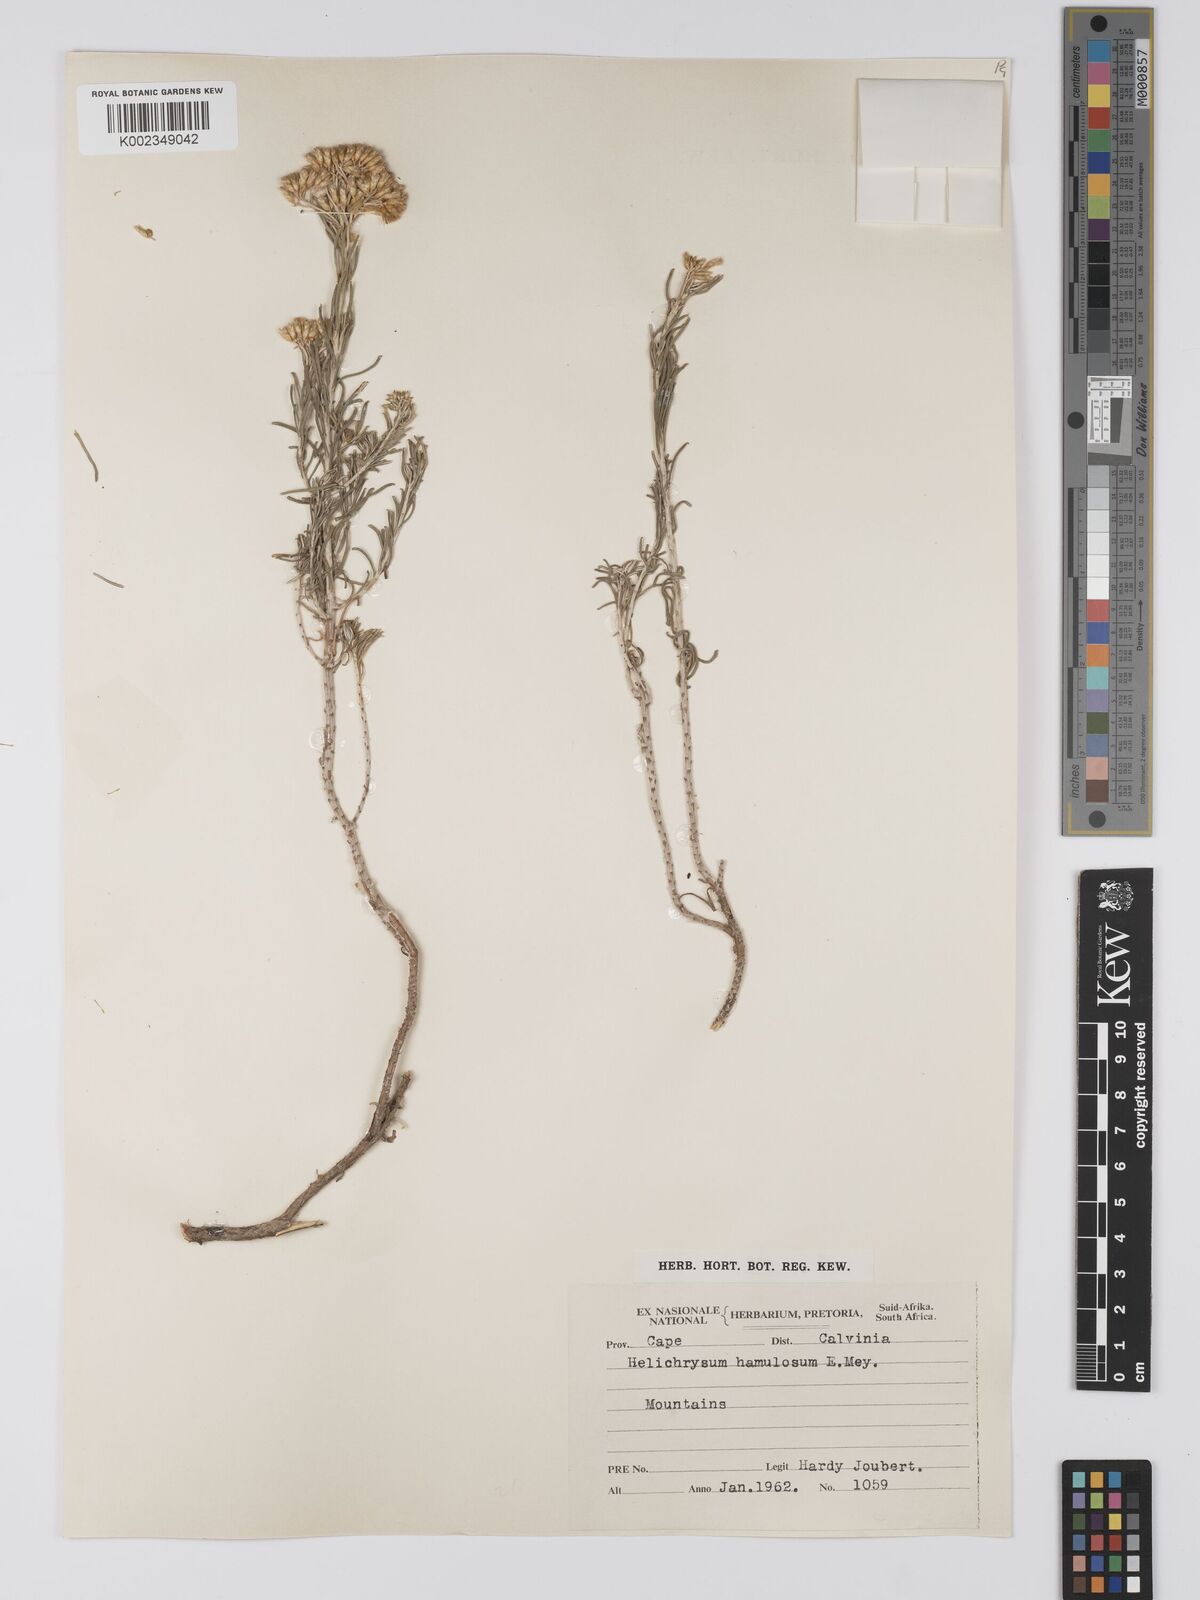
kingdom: Plantae
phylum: Tracheophyta
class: Magnoliopsida
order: Asterales
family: Asteraceae
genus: Helichrysum
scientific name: Helichrysum hamulosum
